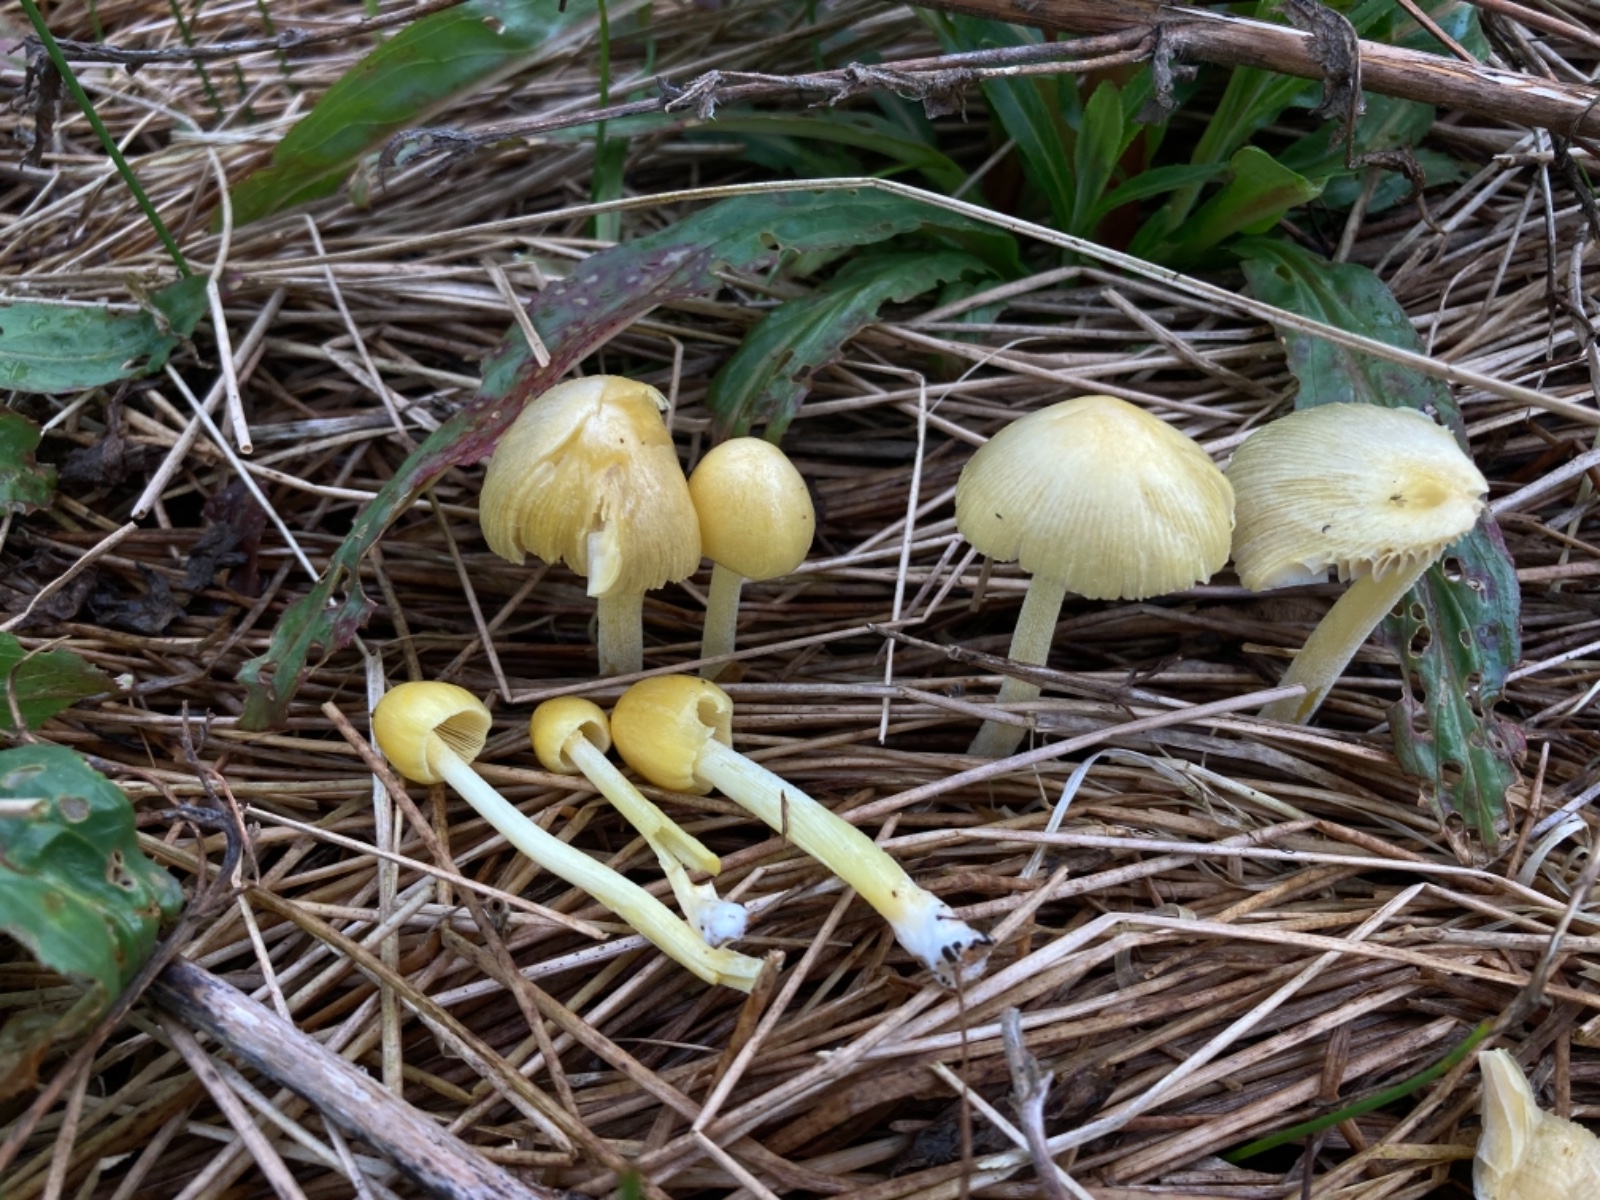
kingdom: Fungi
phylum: Basidiomycota
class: Agaricomycetes
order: Agaricales
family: Bolbitiaceae
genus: Bolbitius
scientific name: Bolbitius titubans
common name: almindelig gulhat
